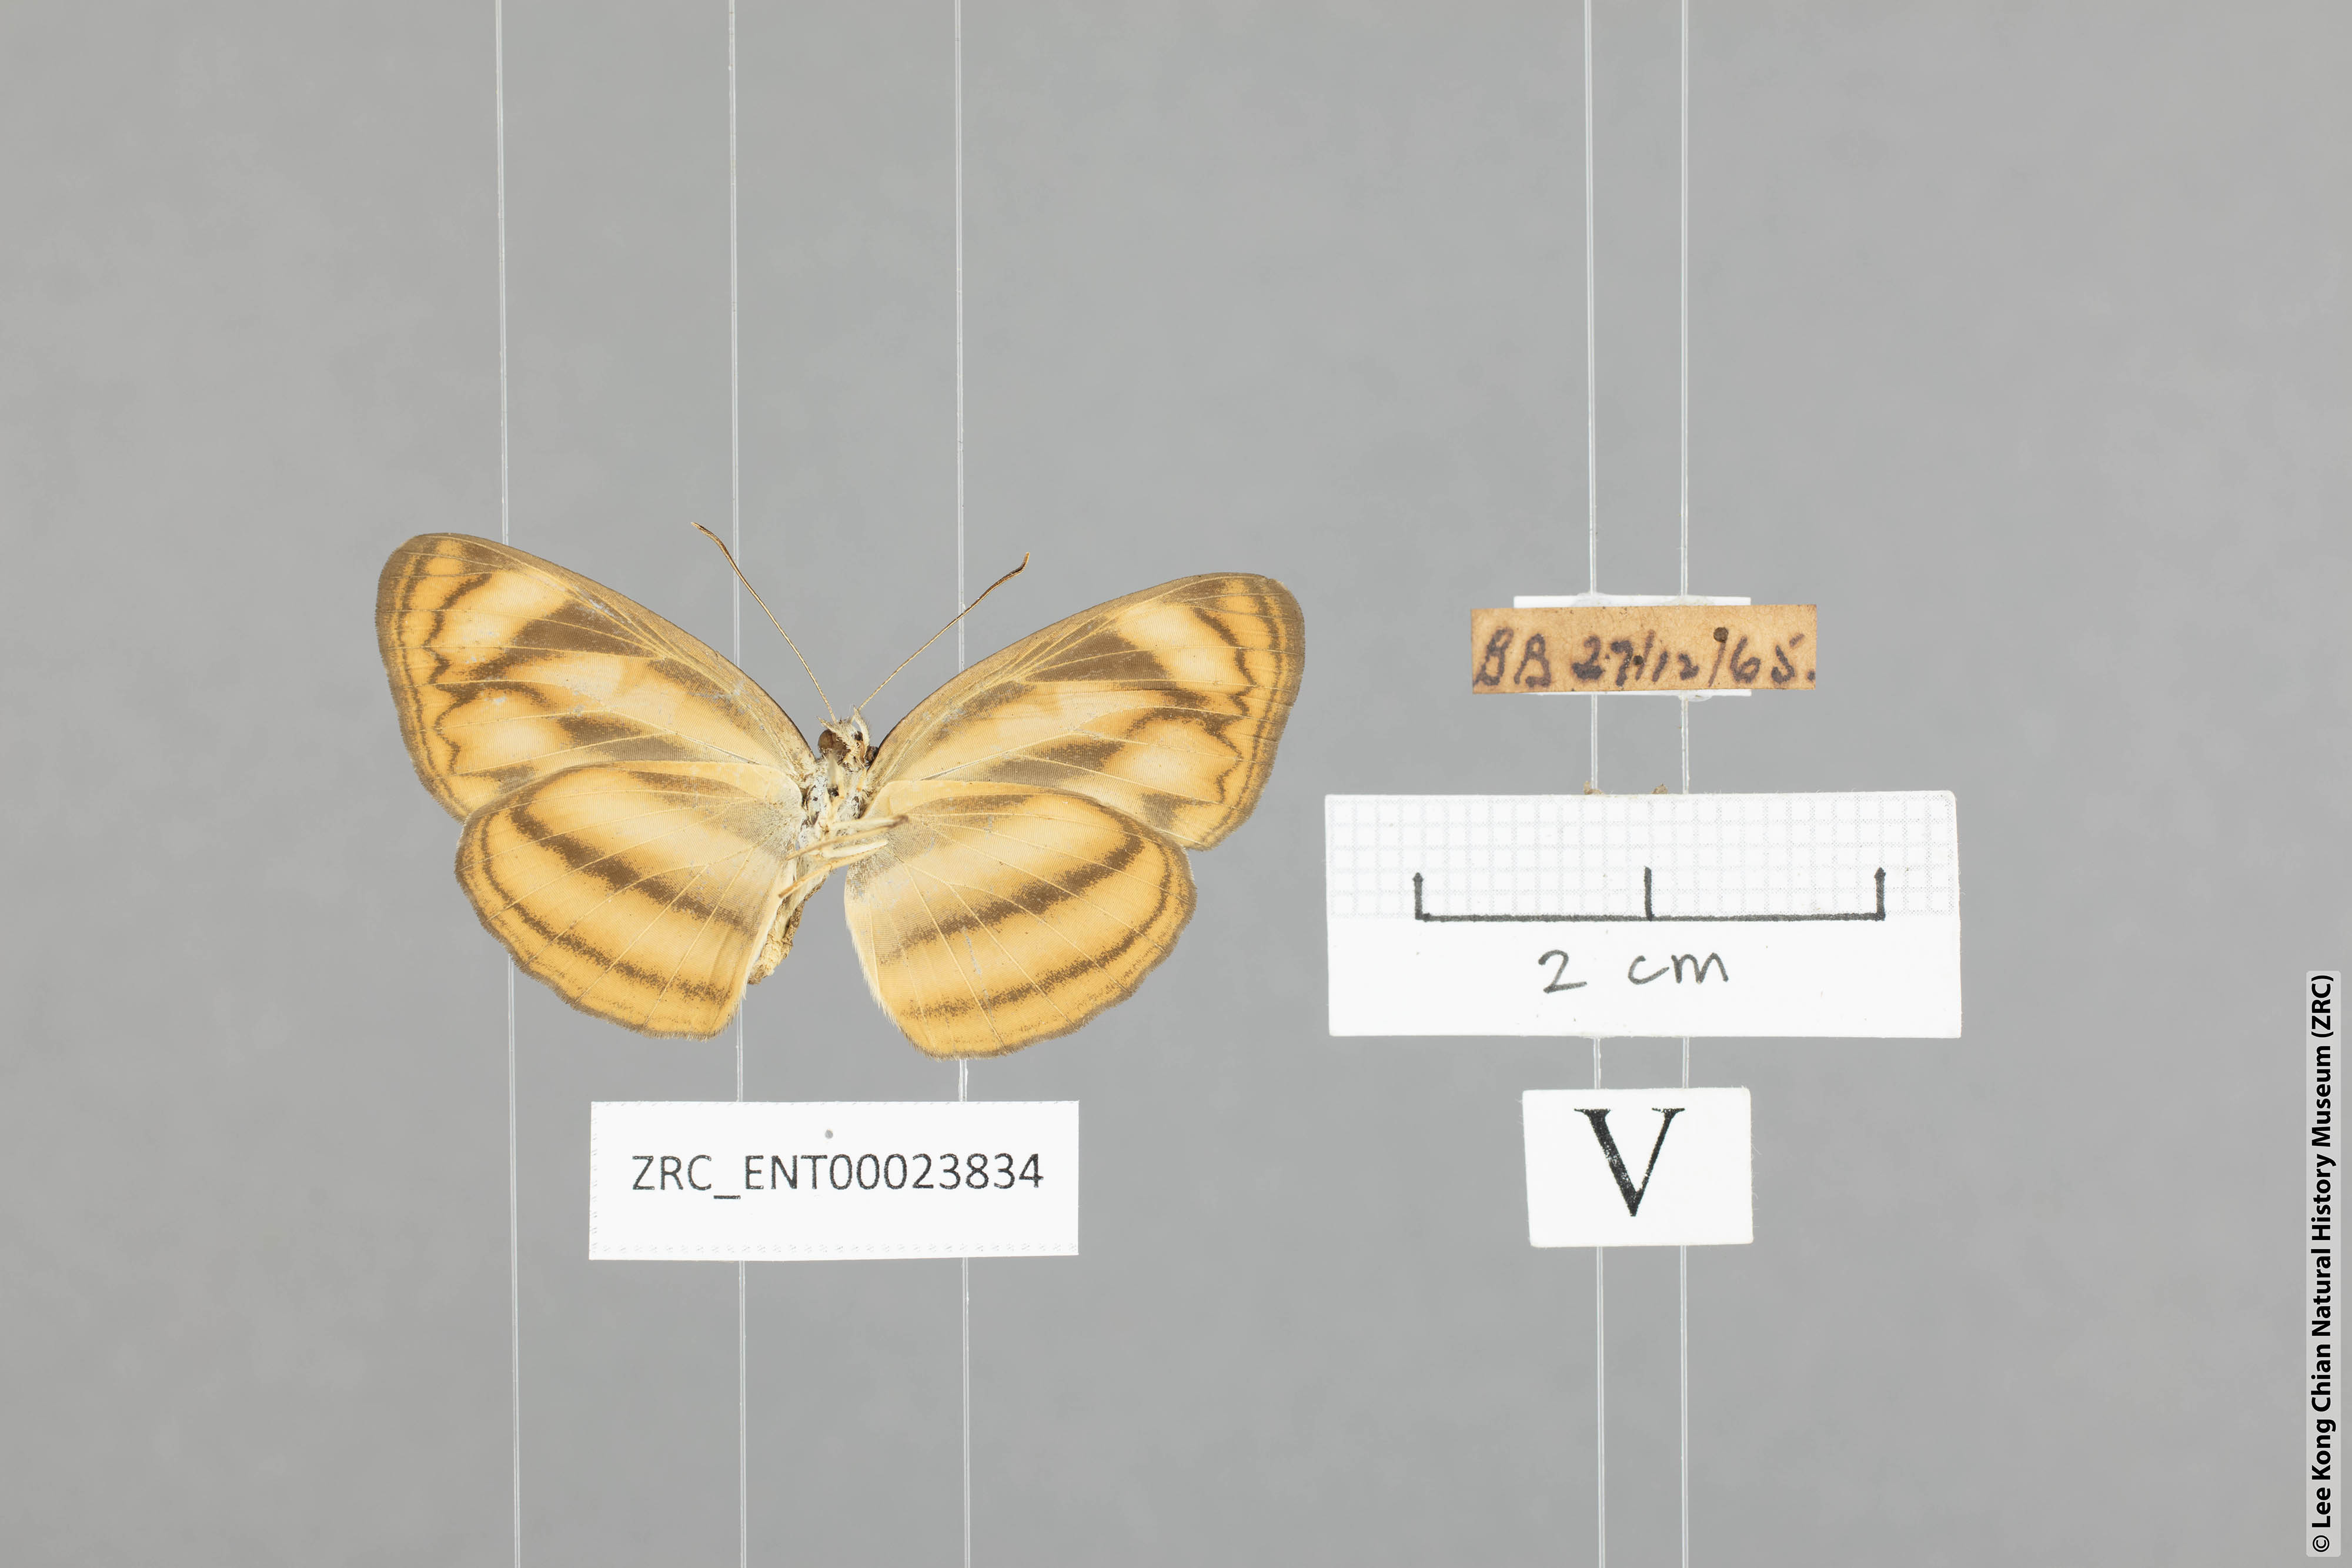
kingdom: Animalia
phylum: Arthropoda
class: Insecta
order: Lepidoptera
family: Nymphalidae
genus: Lasippa
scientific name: Lasippa heliodore
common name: Burmese lascar
